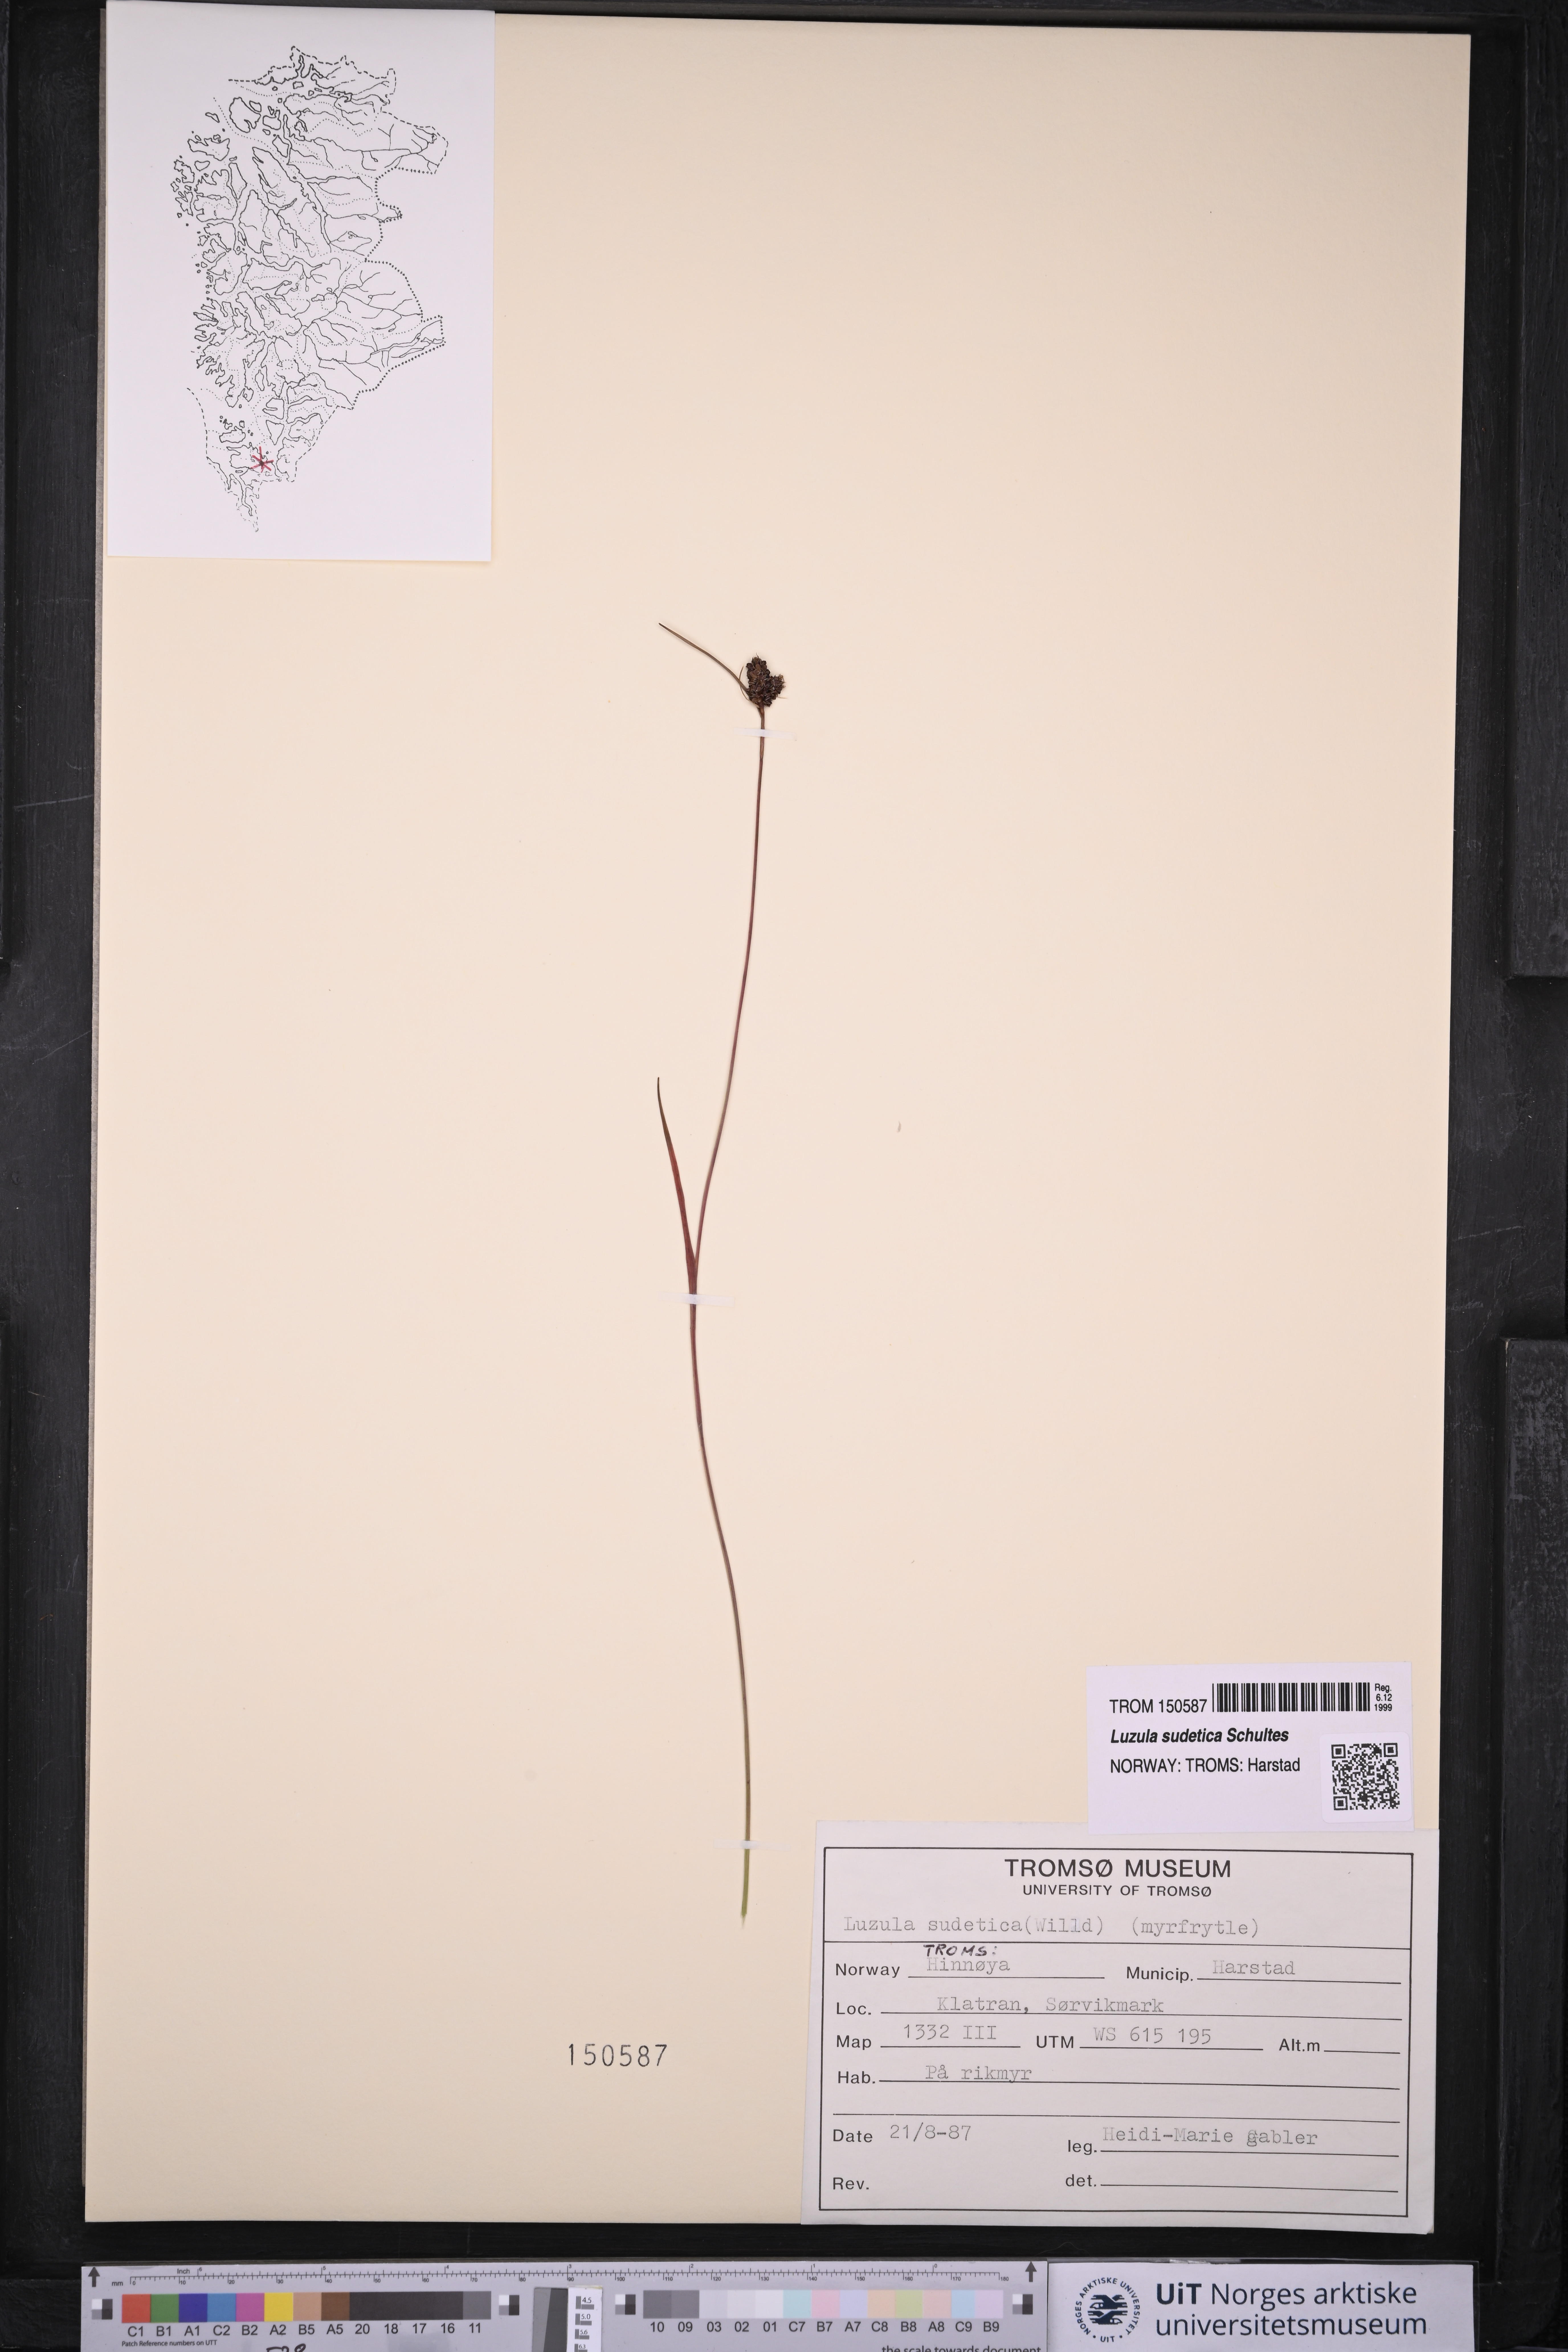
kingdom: Plantae
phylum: Tracheophyta
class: Liliopsida
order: Poales
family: Juncaceae
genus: Luzula
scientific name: Luzula sudetica
